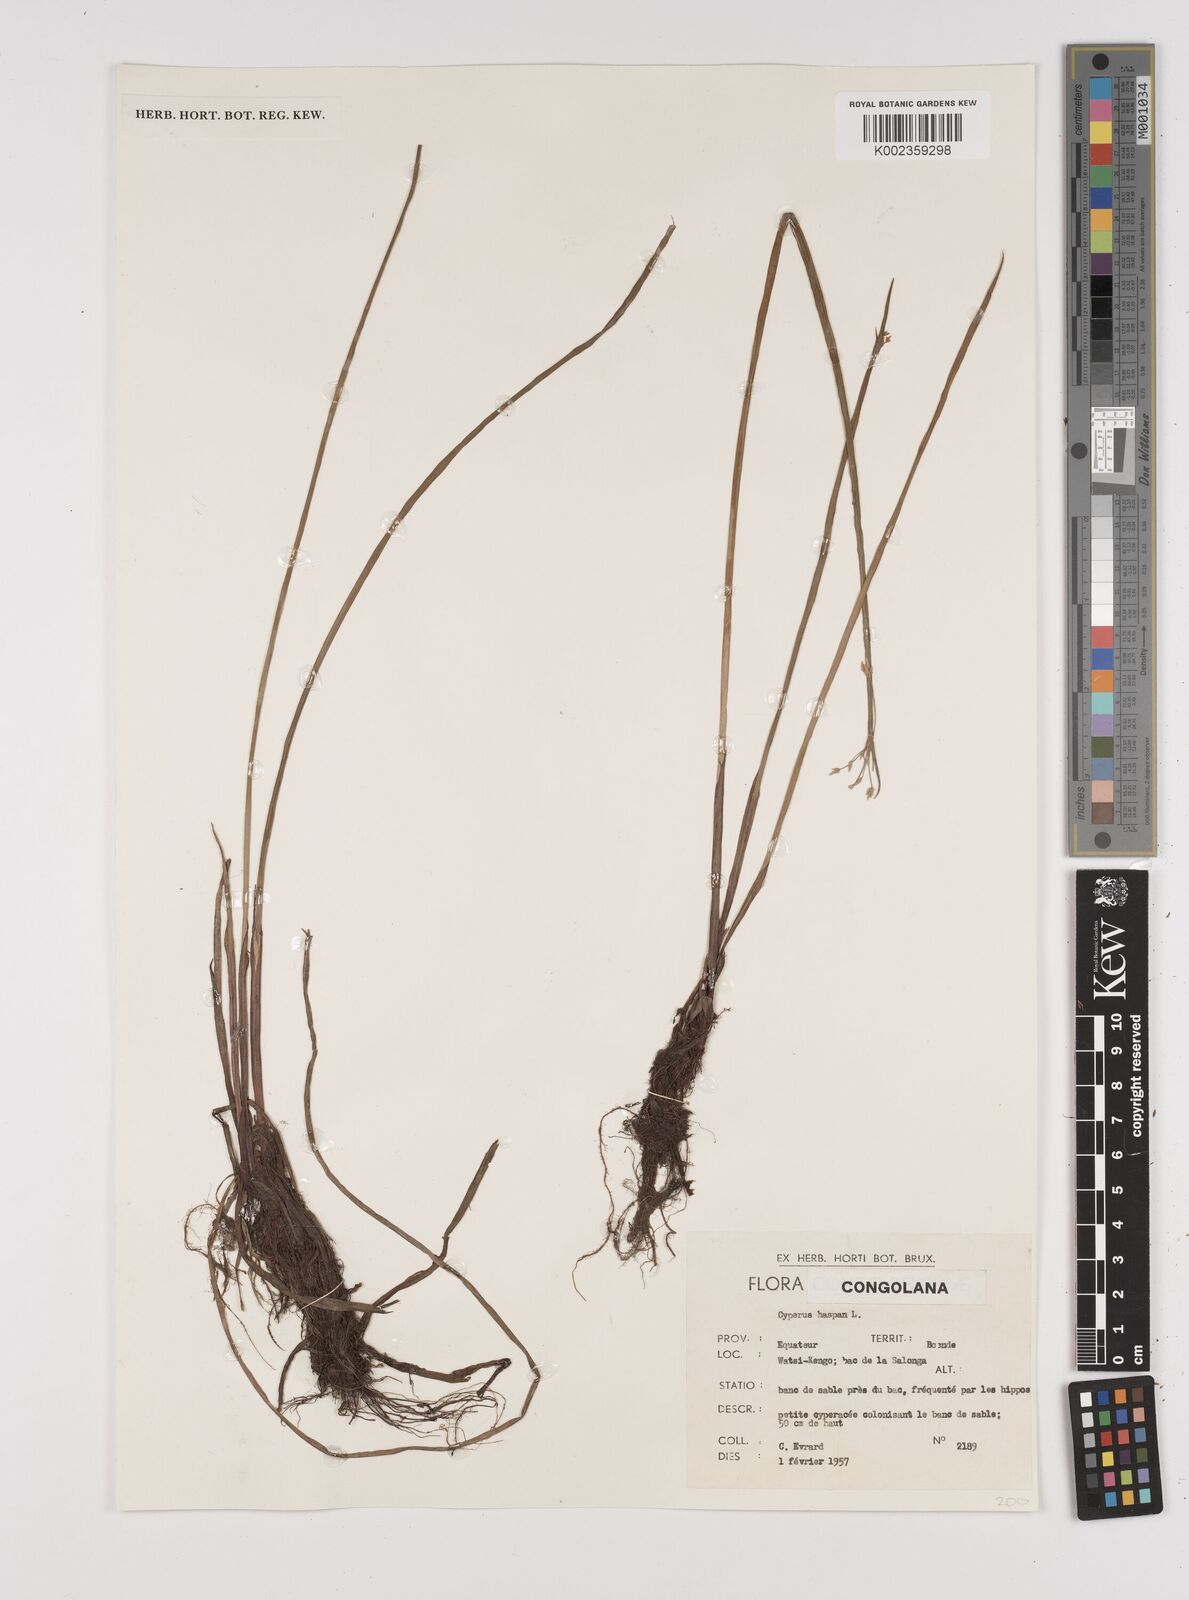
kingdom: Plantae
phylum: Tracheophyta
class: Liliopsida
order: Poales
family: Cyperaceae
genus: Cyperus
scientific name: Cyperus haspan
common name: Haspan flatsedge
